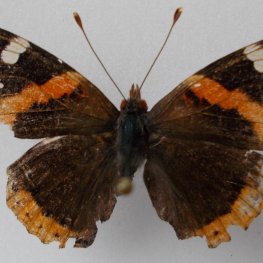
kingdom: Animalia
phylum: Arthropoda
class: Insecta
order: Lepidoptera
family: Nymphalidae
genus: Vanessa
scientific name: Vanessa atalanta
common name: Red Admiral
